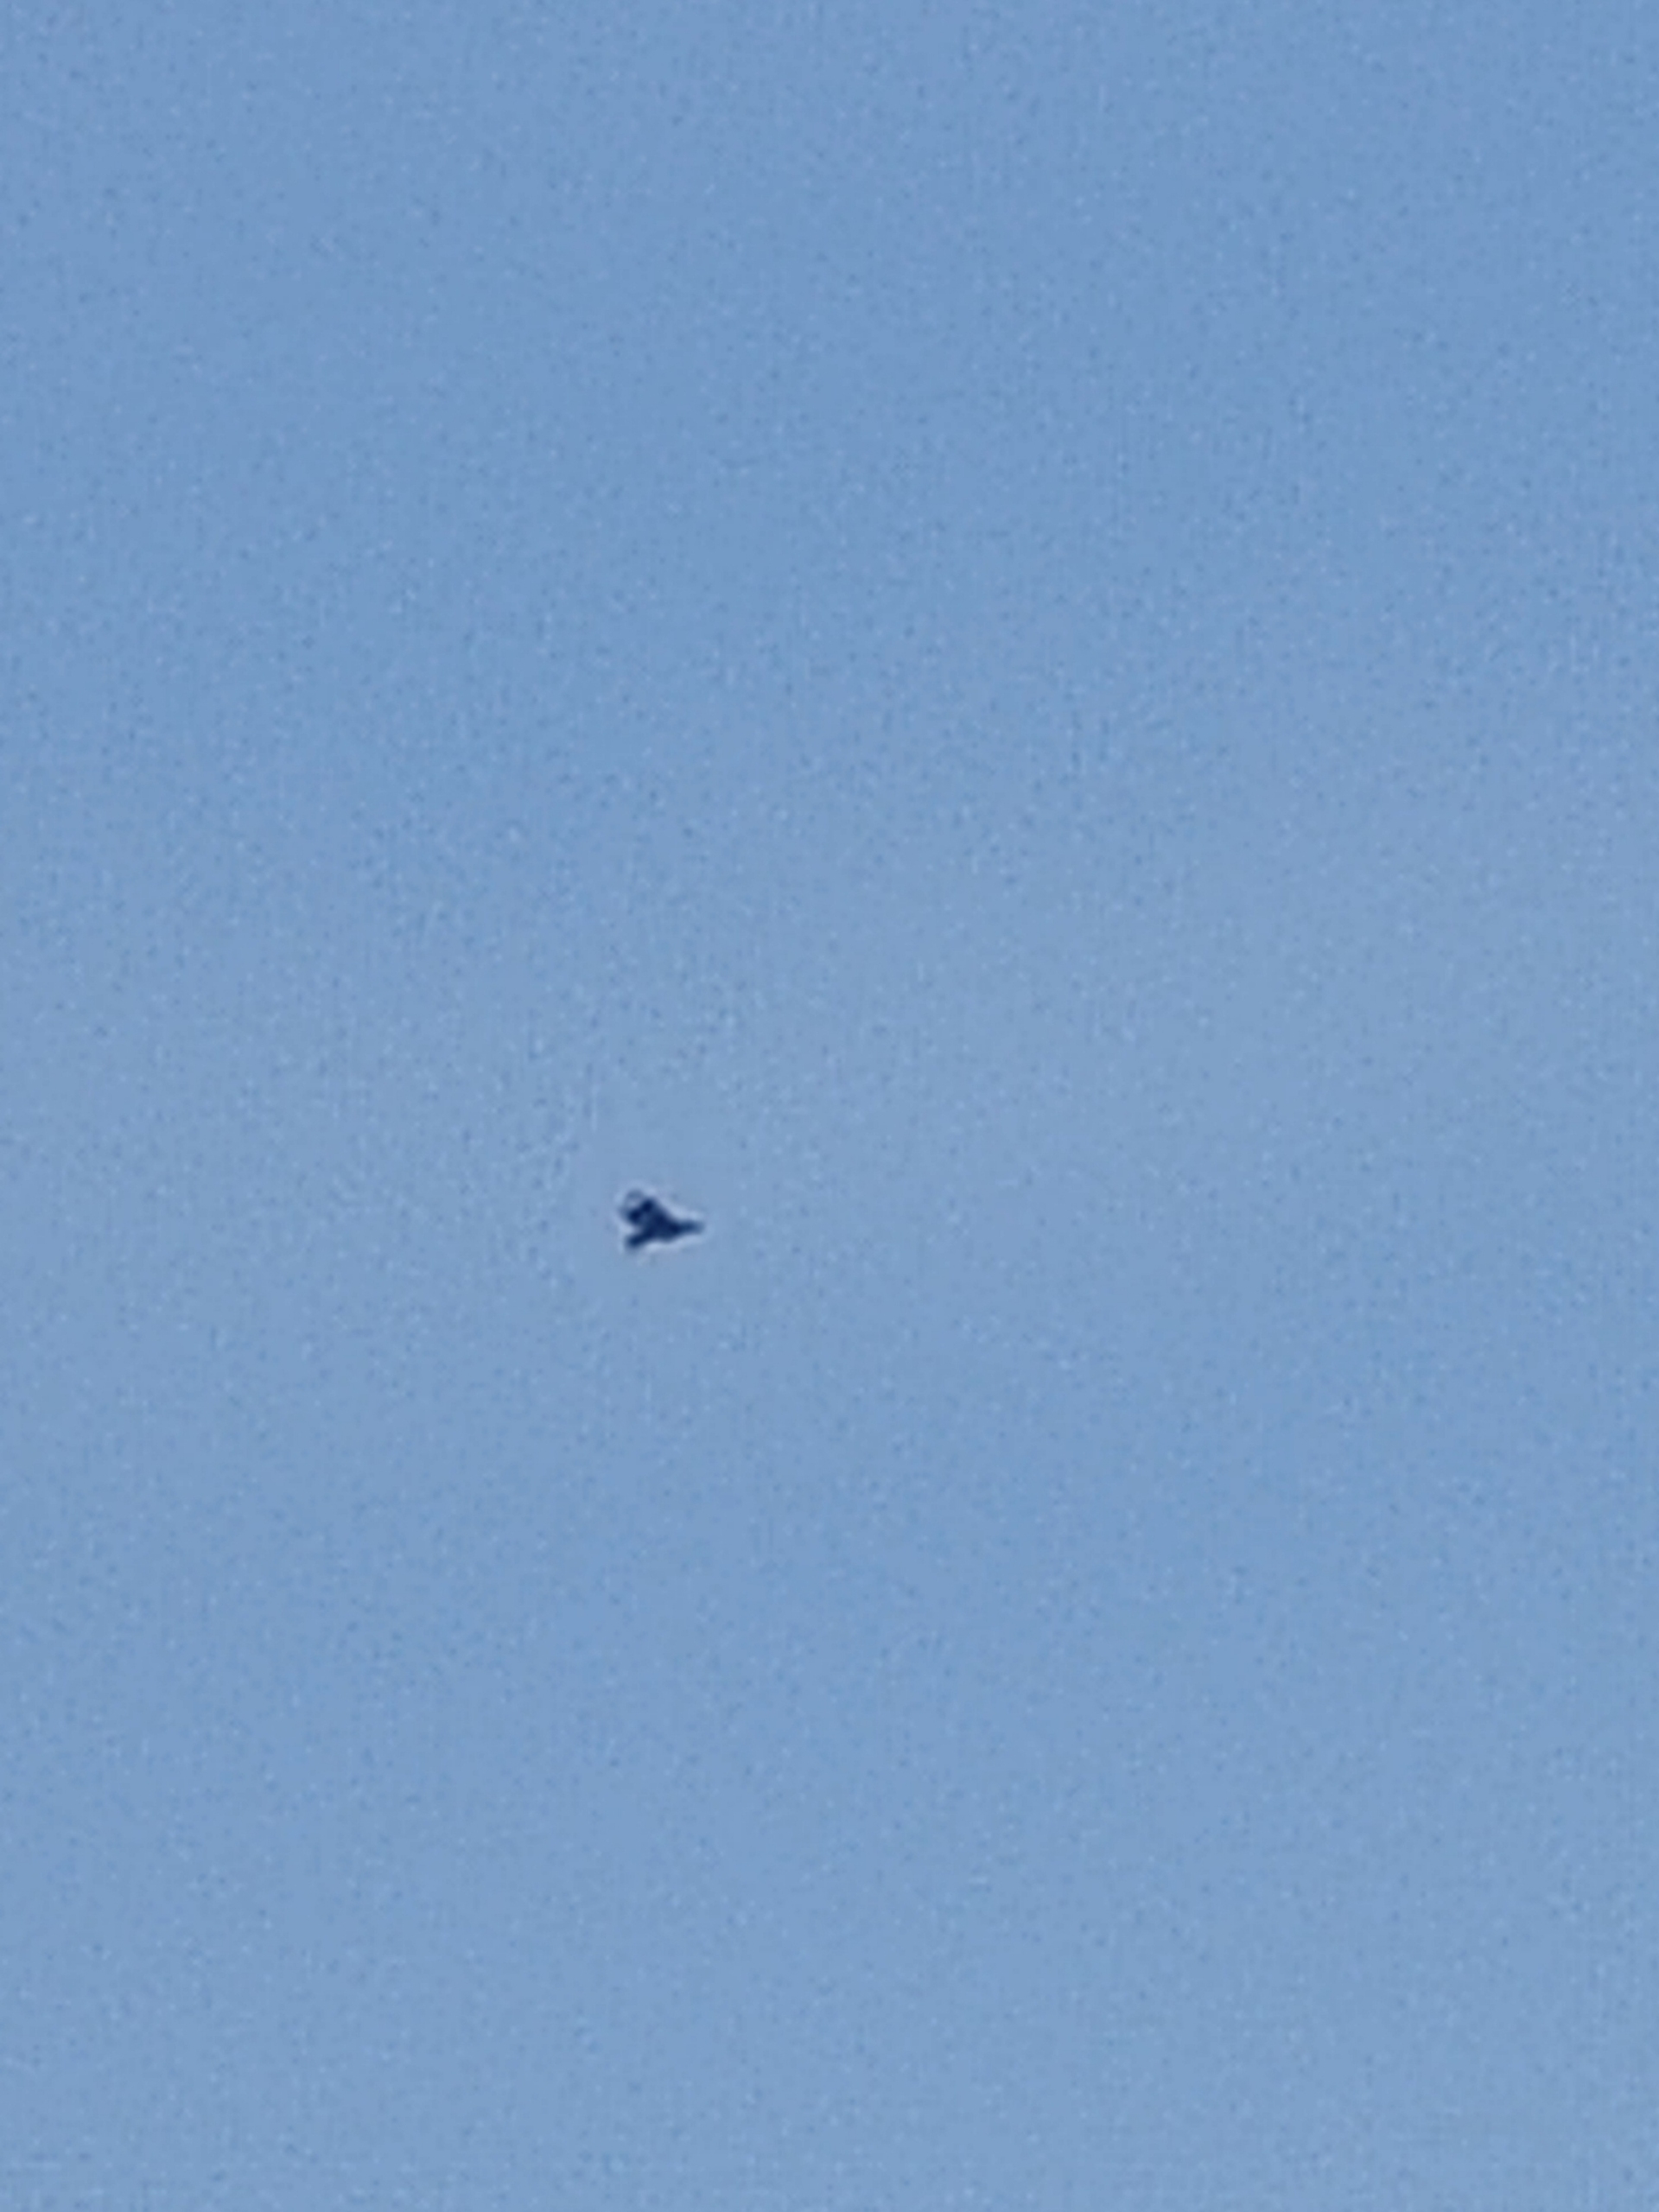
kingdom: Animalia
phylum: Chordata
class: Aves
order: Accipitriformes
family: Accipitridae
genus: Haliaeetus
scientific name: Haliaeetus albicilla
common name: Havørn
